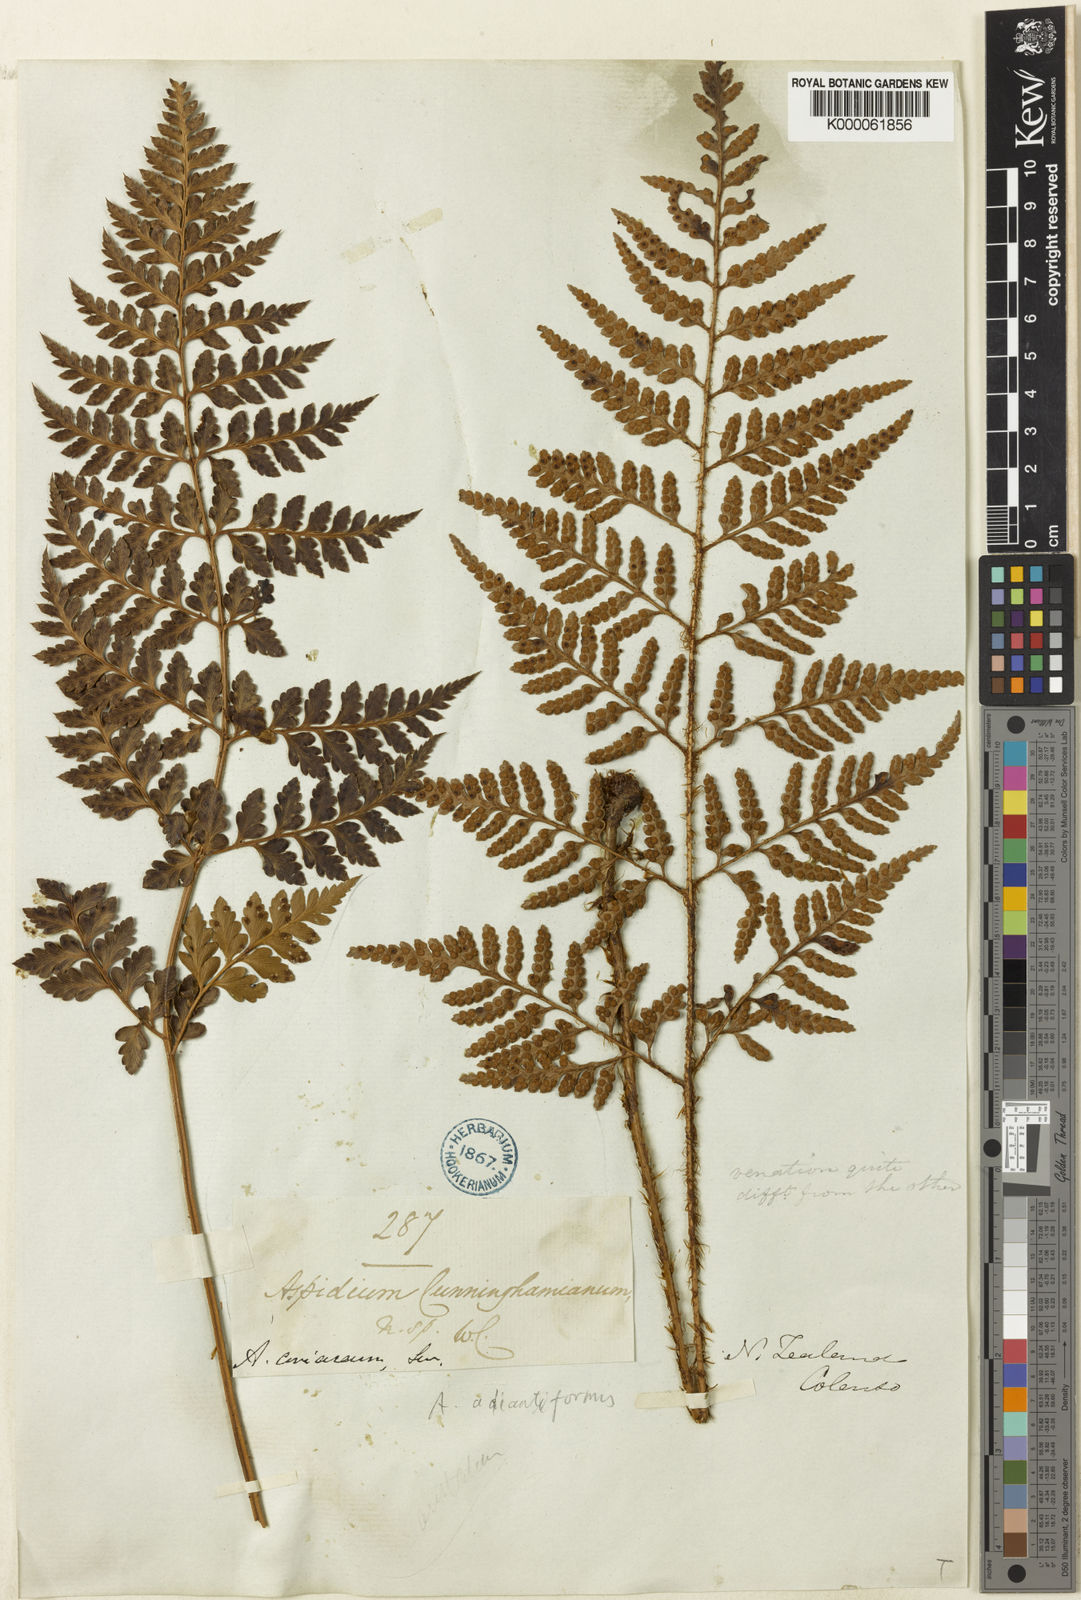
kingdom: Plantae
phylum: Tracheophyta
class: Polypodiopsida
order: Polypodiales
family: Dryopteridaceae
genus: Rumohra
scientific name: Rumohra adiantiformis
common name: Leather fern
